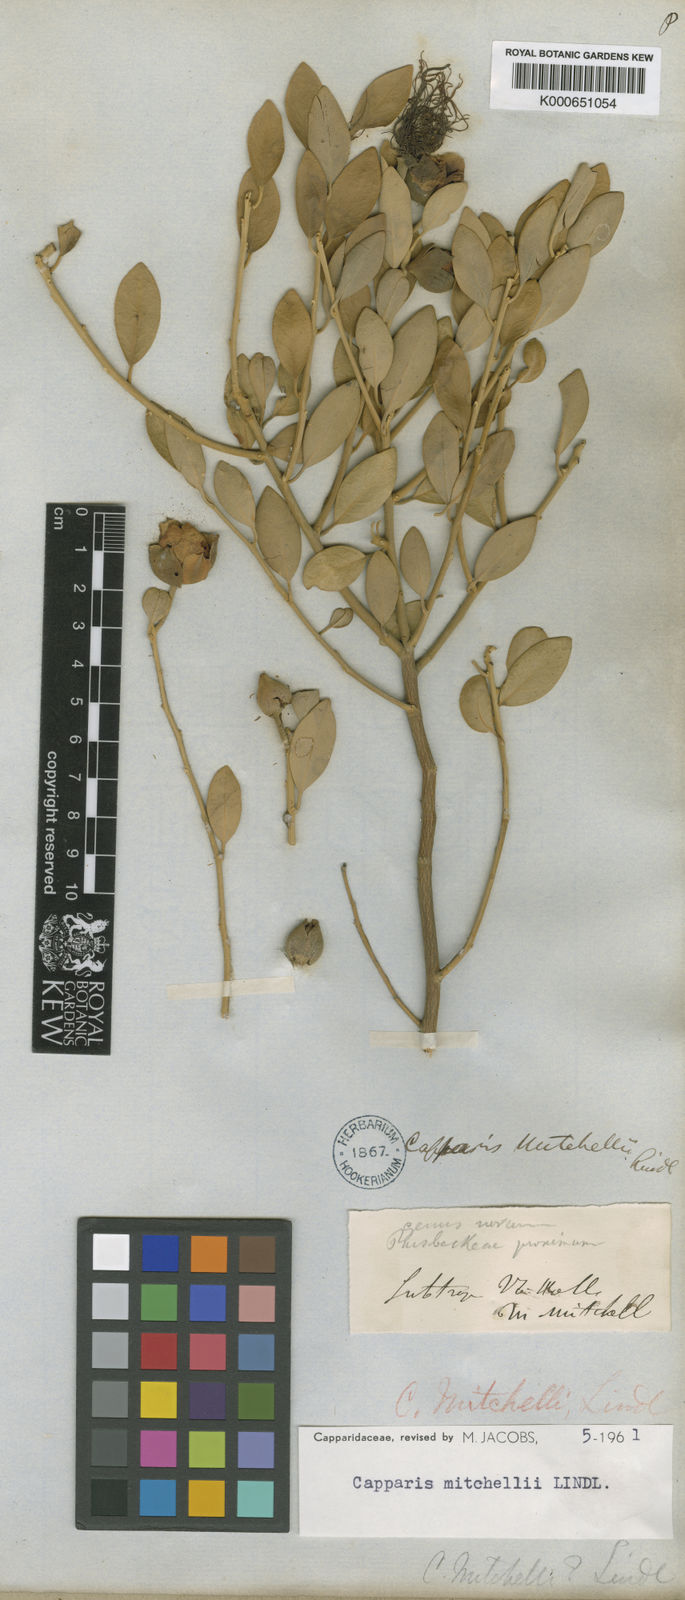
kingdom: Plantae
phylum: Tracheophyta
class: Magnoliopsida
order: Brassicales
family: Capparaceae
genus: Capparis
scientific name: Capparis mitchellii
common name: Desert caper
